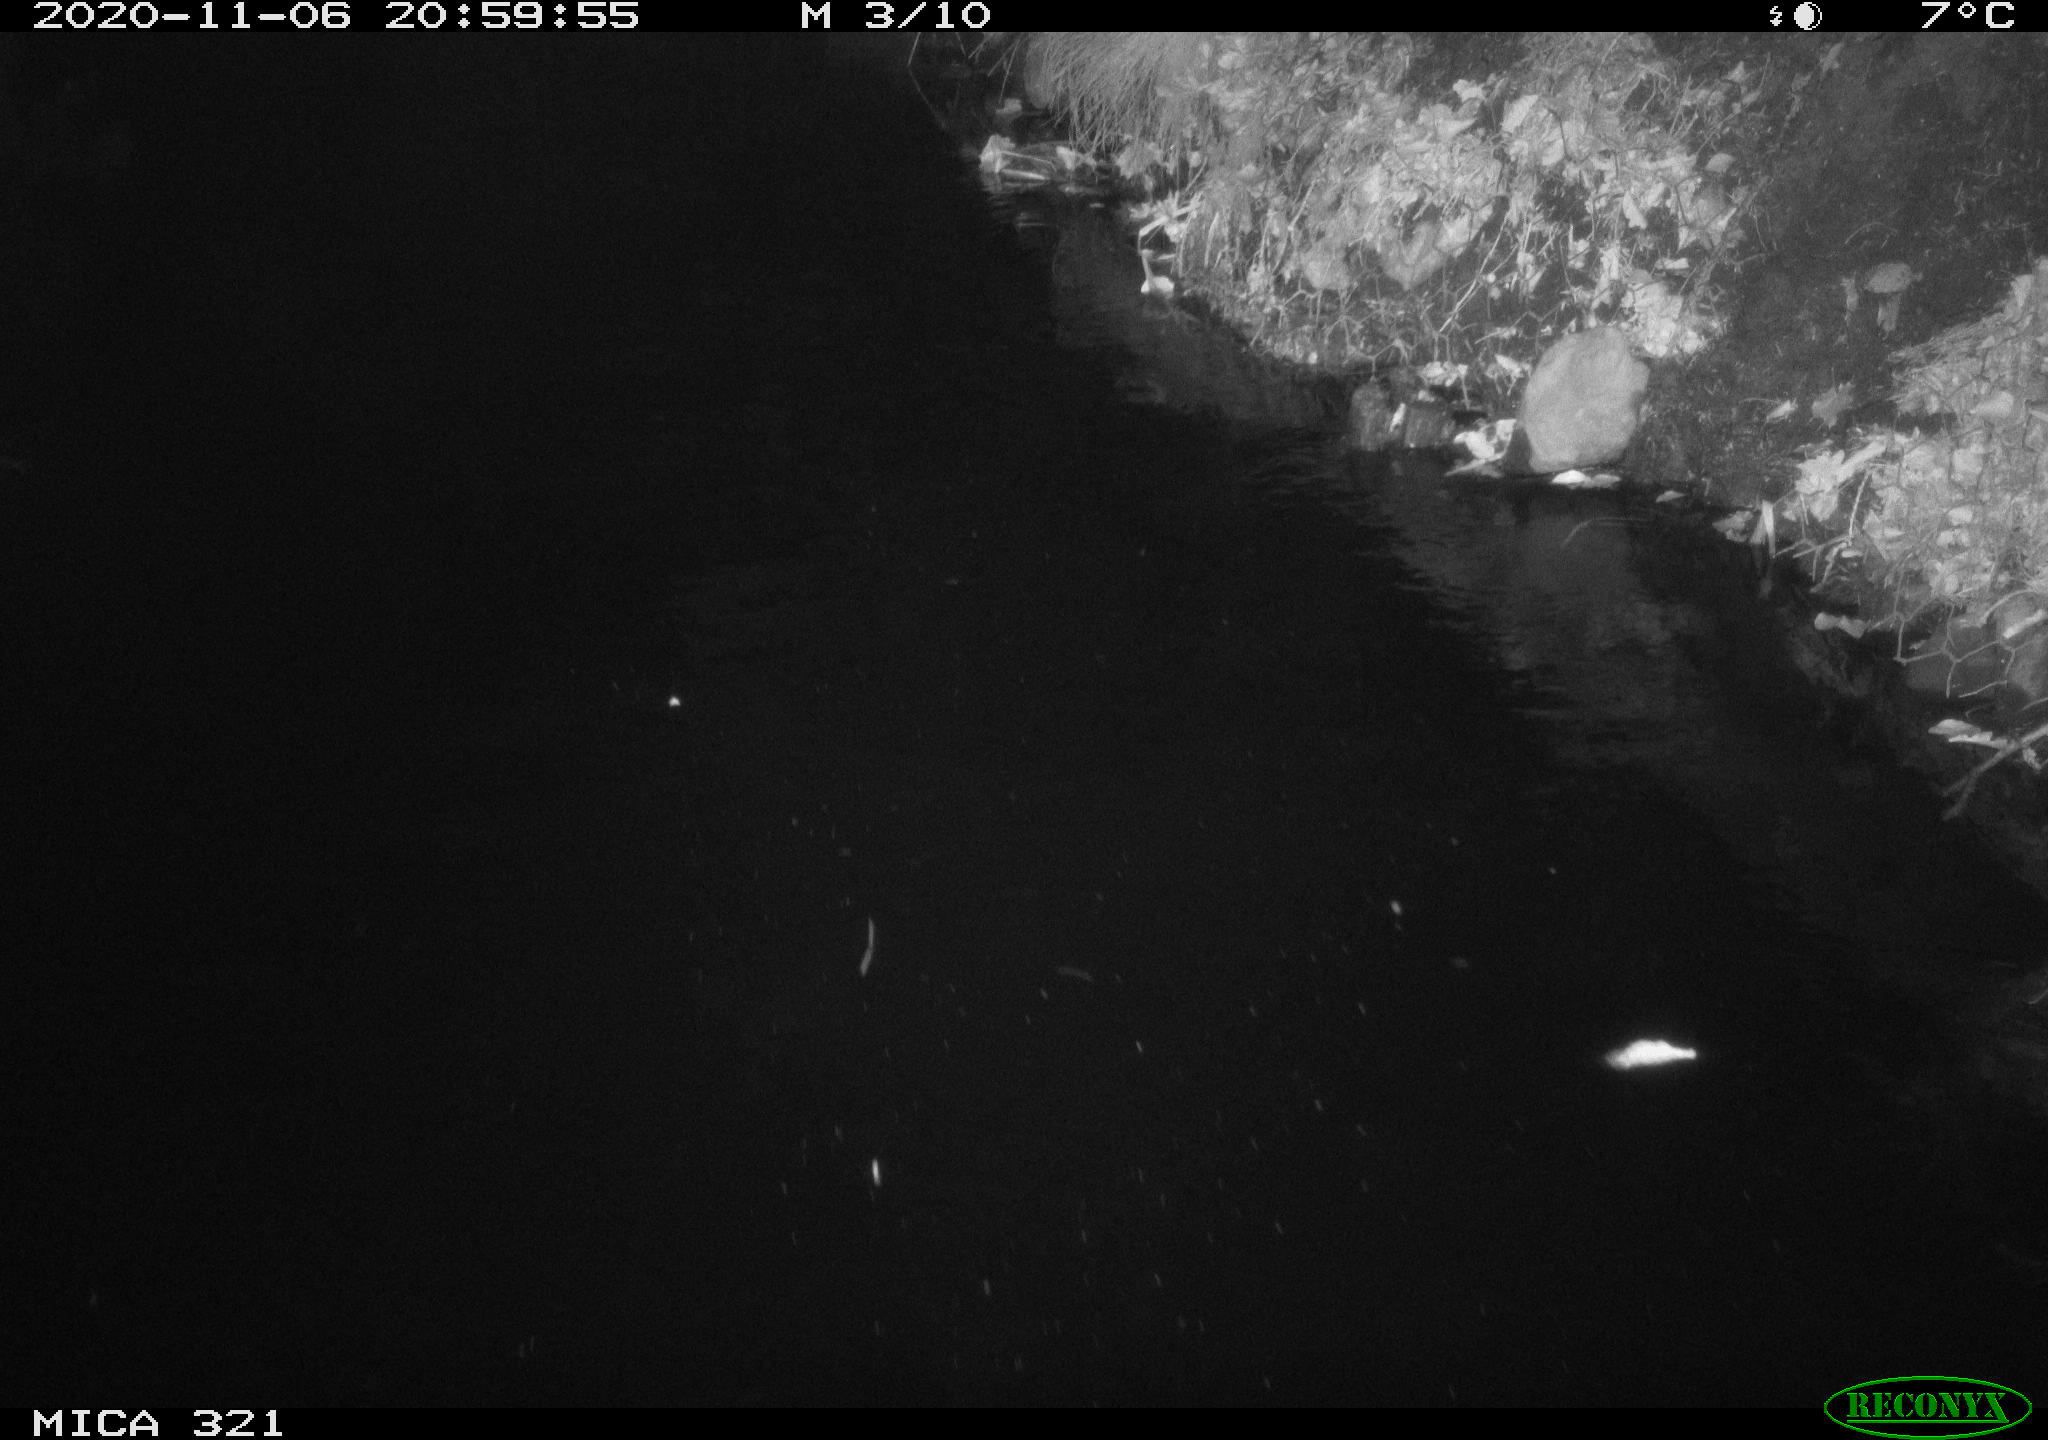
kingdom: Animalia
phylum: Chordata
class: Mammalia
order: Rodentia
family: Muridae
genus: Rattus
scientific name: Rattus norvegicus
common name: Brown rat
